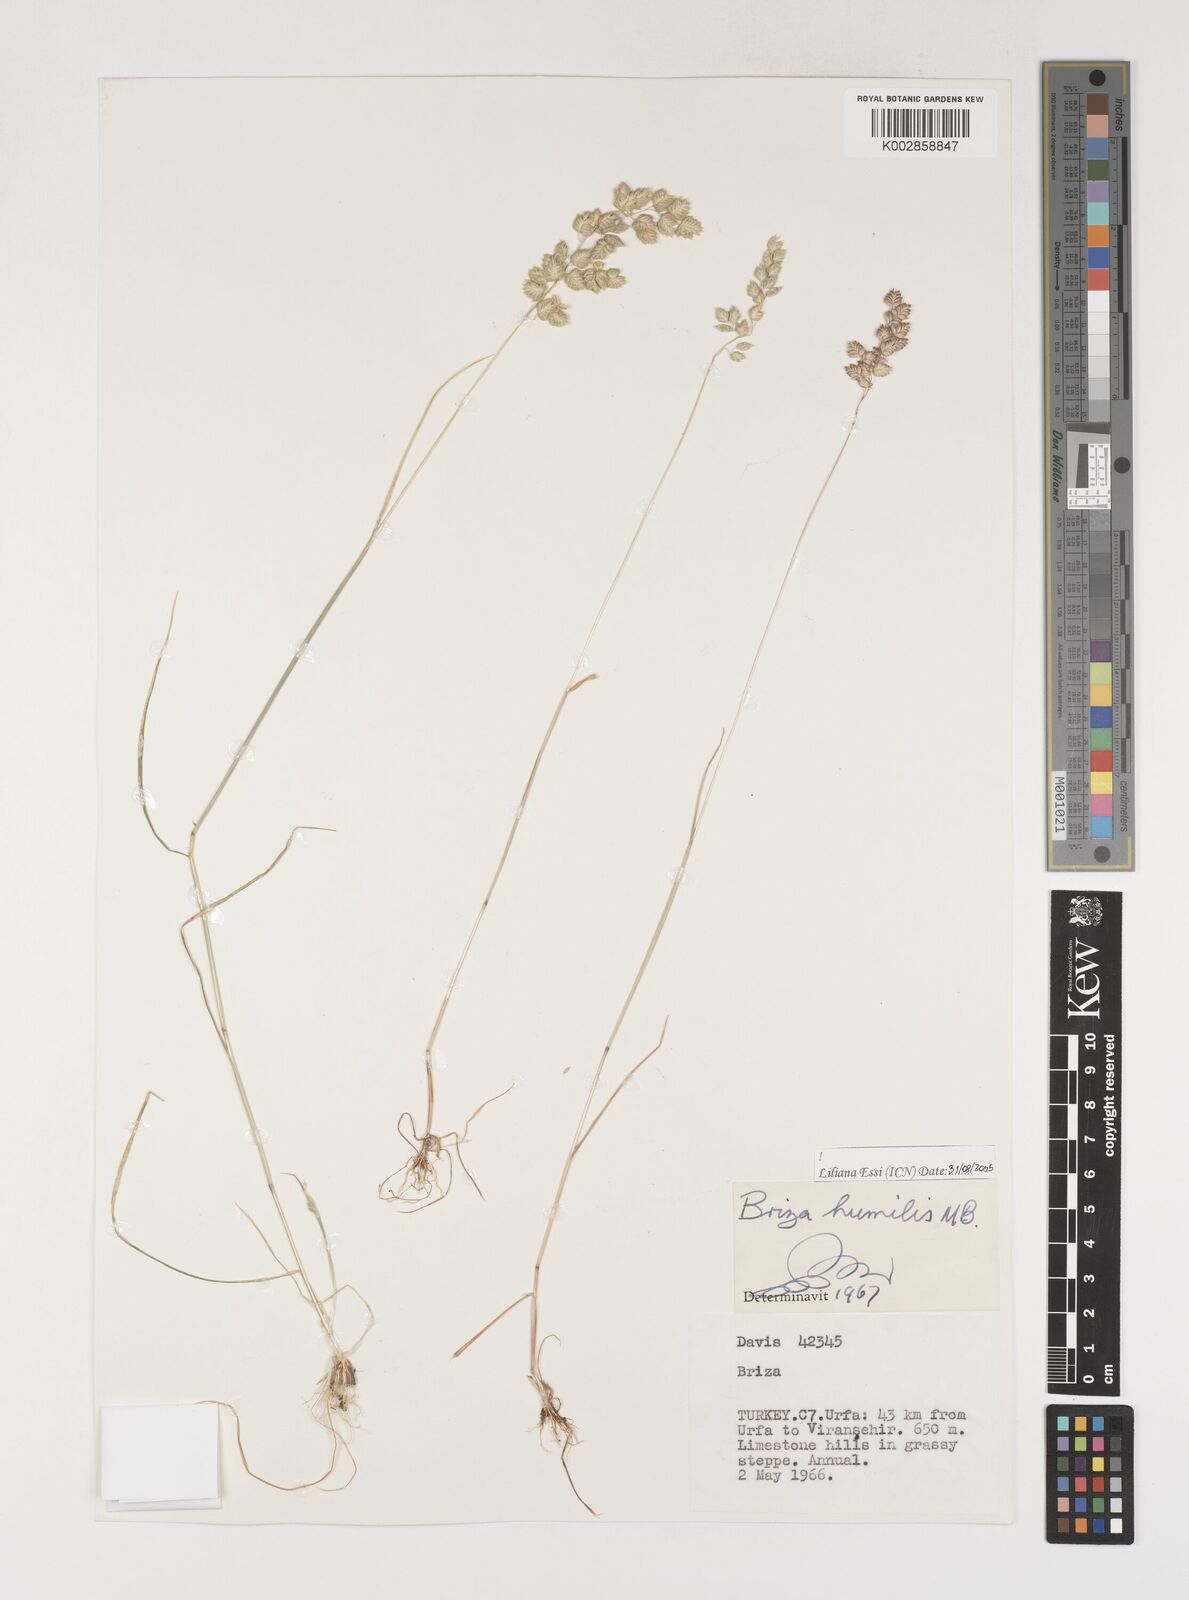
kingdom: Plantae
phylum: Tracheophyta
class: Liliopsida
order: Poales
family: Poaceae
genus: Briza
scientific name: Briza humilis
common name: Spiked quaking grass
